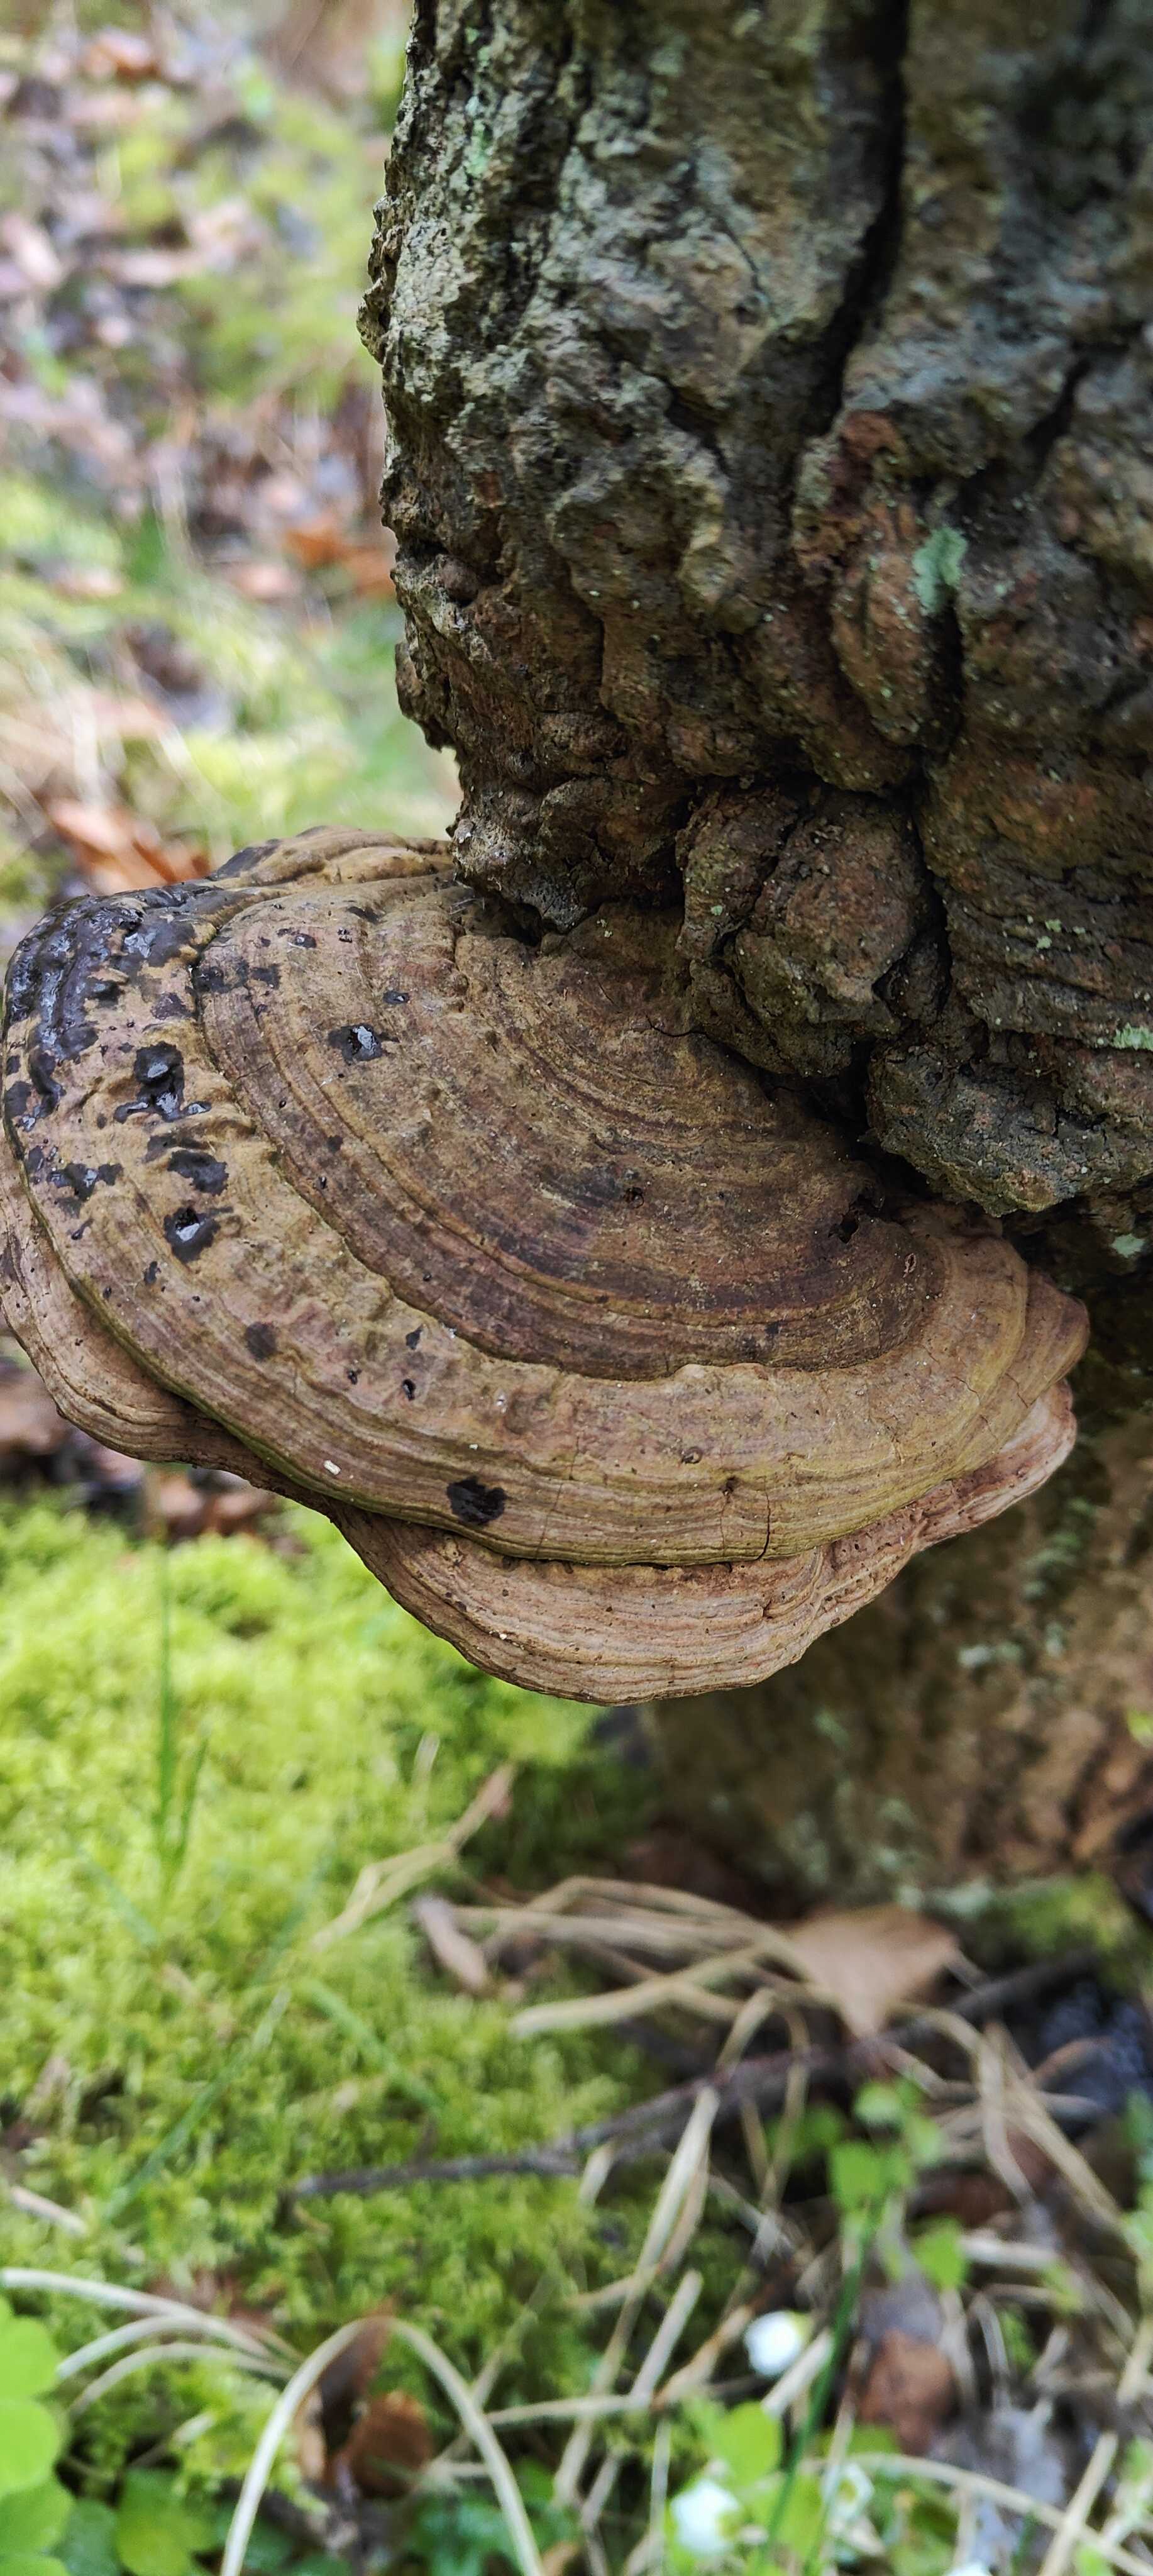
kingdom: Fungi
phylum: Basidiomycota
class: Agaricomycetes
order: Polyporales
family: Polyporaceae
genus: Ganoderma
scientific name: Ganoderma applanatum
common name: flad lakporesvamp
